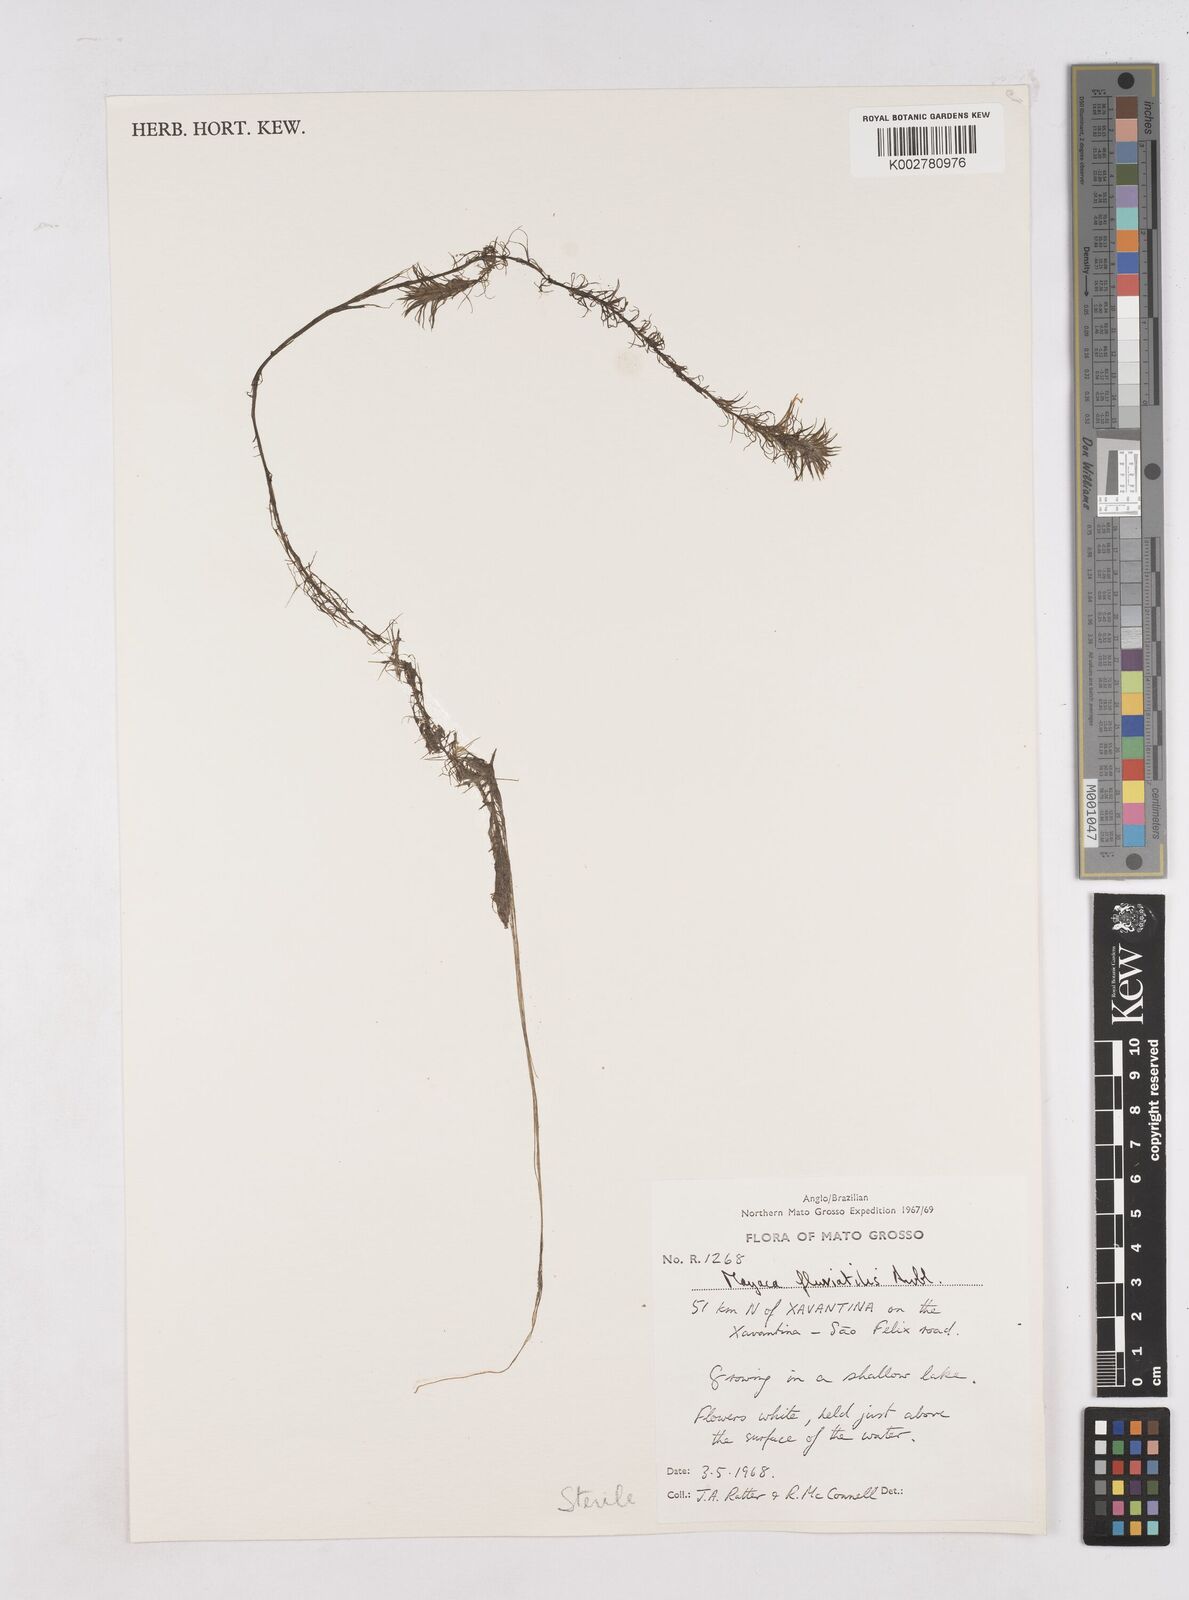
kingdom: Plantae
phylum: Tracheophyta
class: Liliopsida
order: Poales
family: Mayacaceae
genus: Mayaca
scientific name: Mayaca
